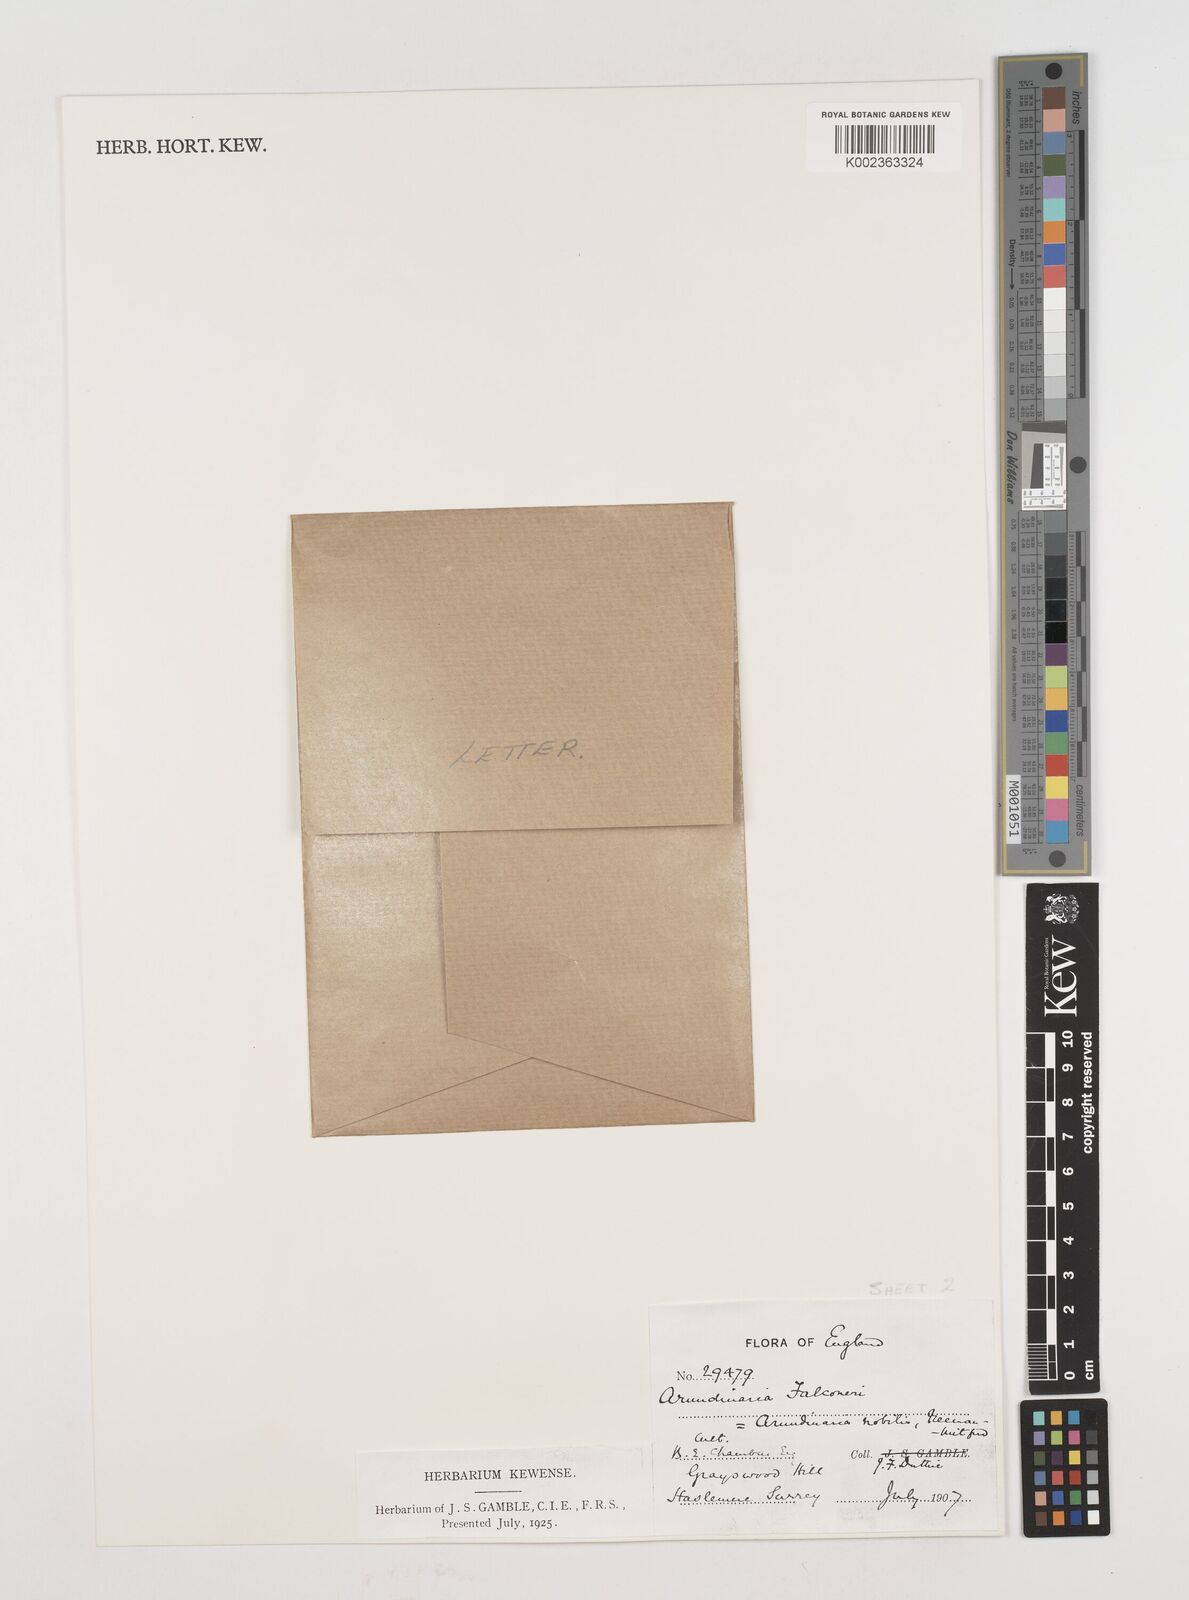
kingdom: Plantae
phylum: Tracheophyta
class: Liliopsida
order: Poales
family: Poaceae
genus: Himalayacalamus
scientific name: Himalayacalamus falconeri
